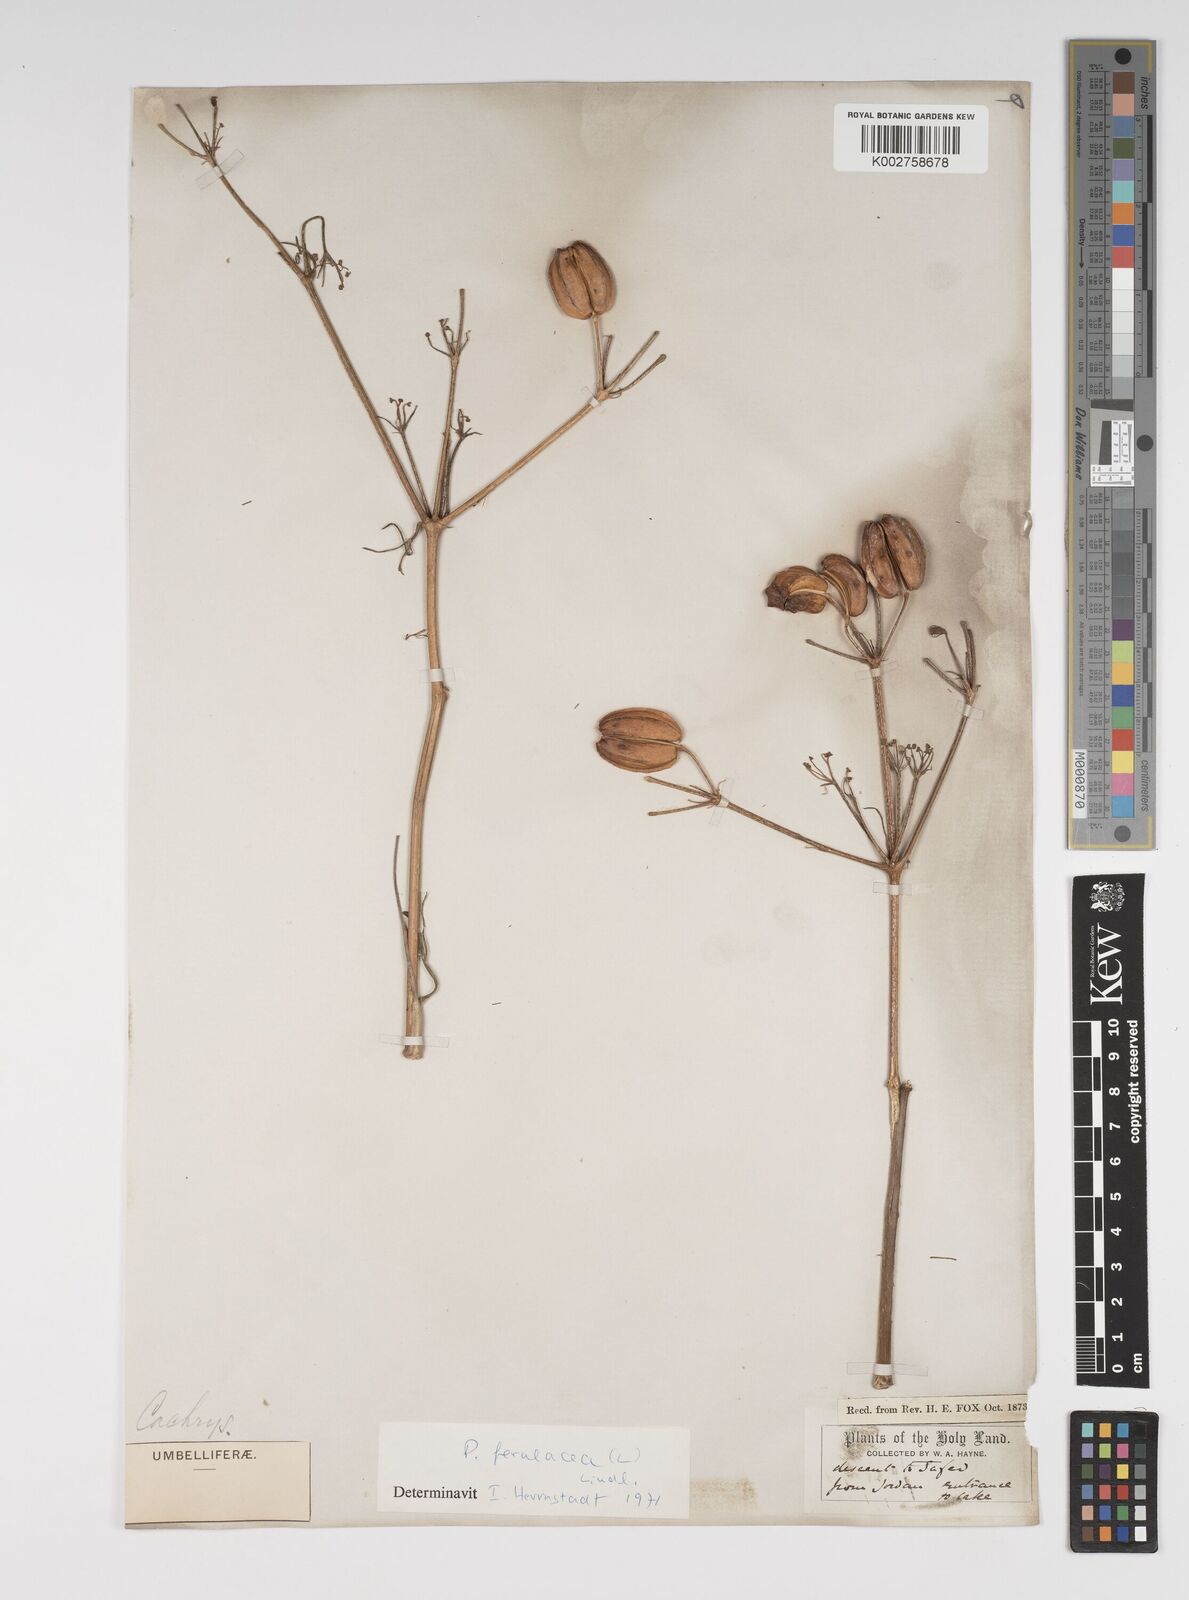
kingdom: Plantae
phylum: Tracheophyta
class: Magnoliopsida
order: Apiales
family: Apiaceae
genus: Prangos
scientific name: Prangos ferulacea
